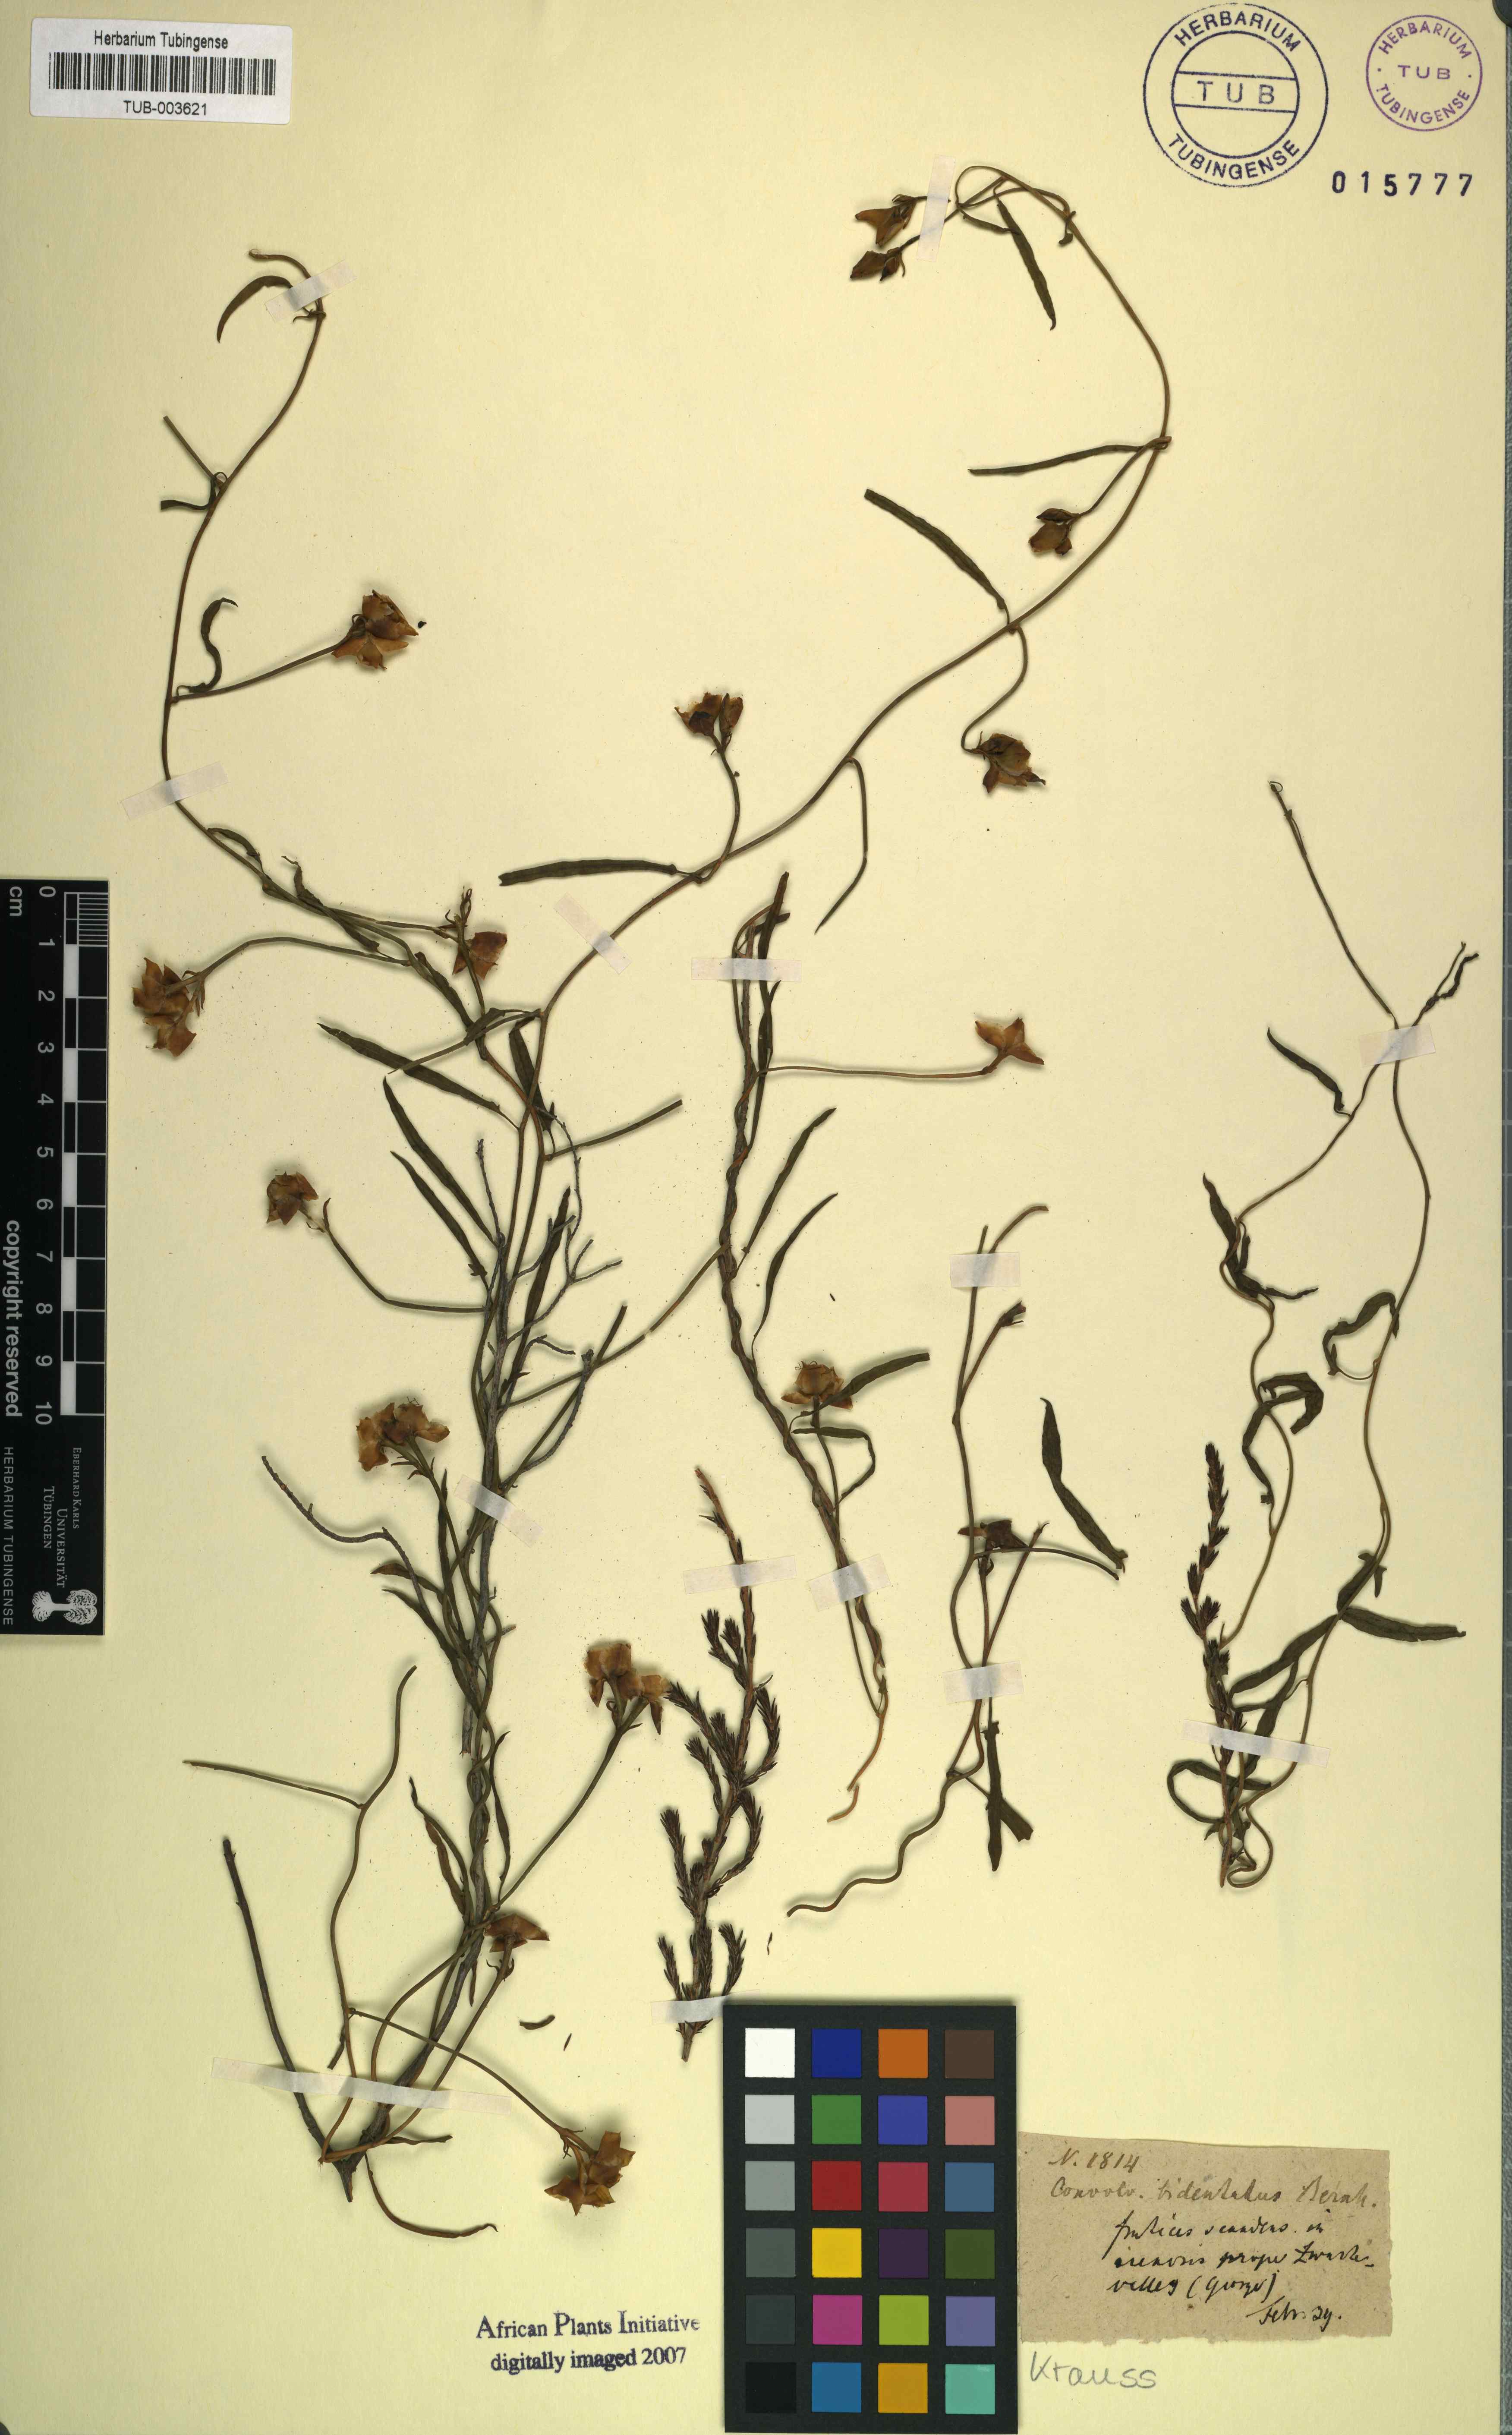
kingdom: Plantae
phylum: Tracheophyta
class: Magnoliopsida
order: Solanales
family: Convolvulaceae
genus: Convolvulus
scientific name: Convolvulus bidentatus
